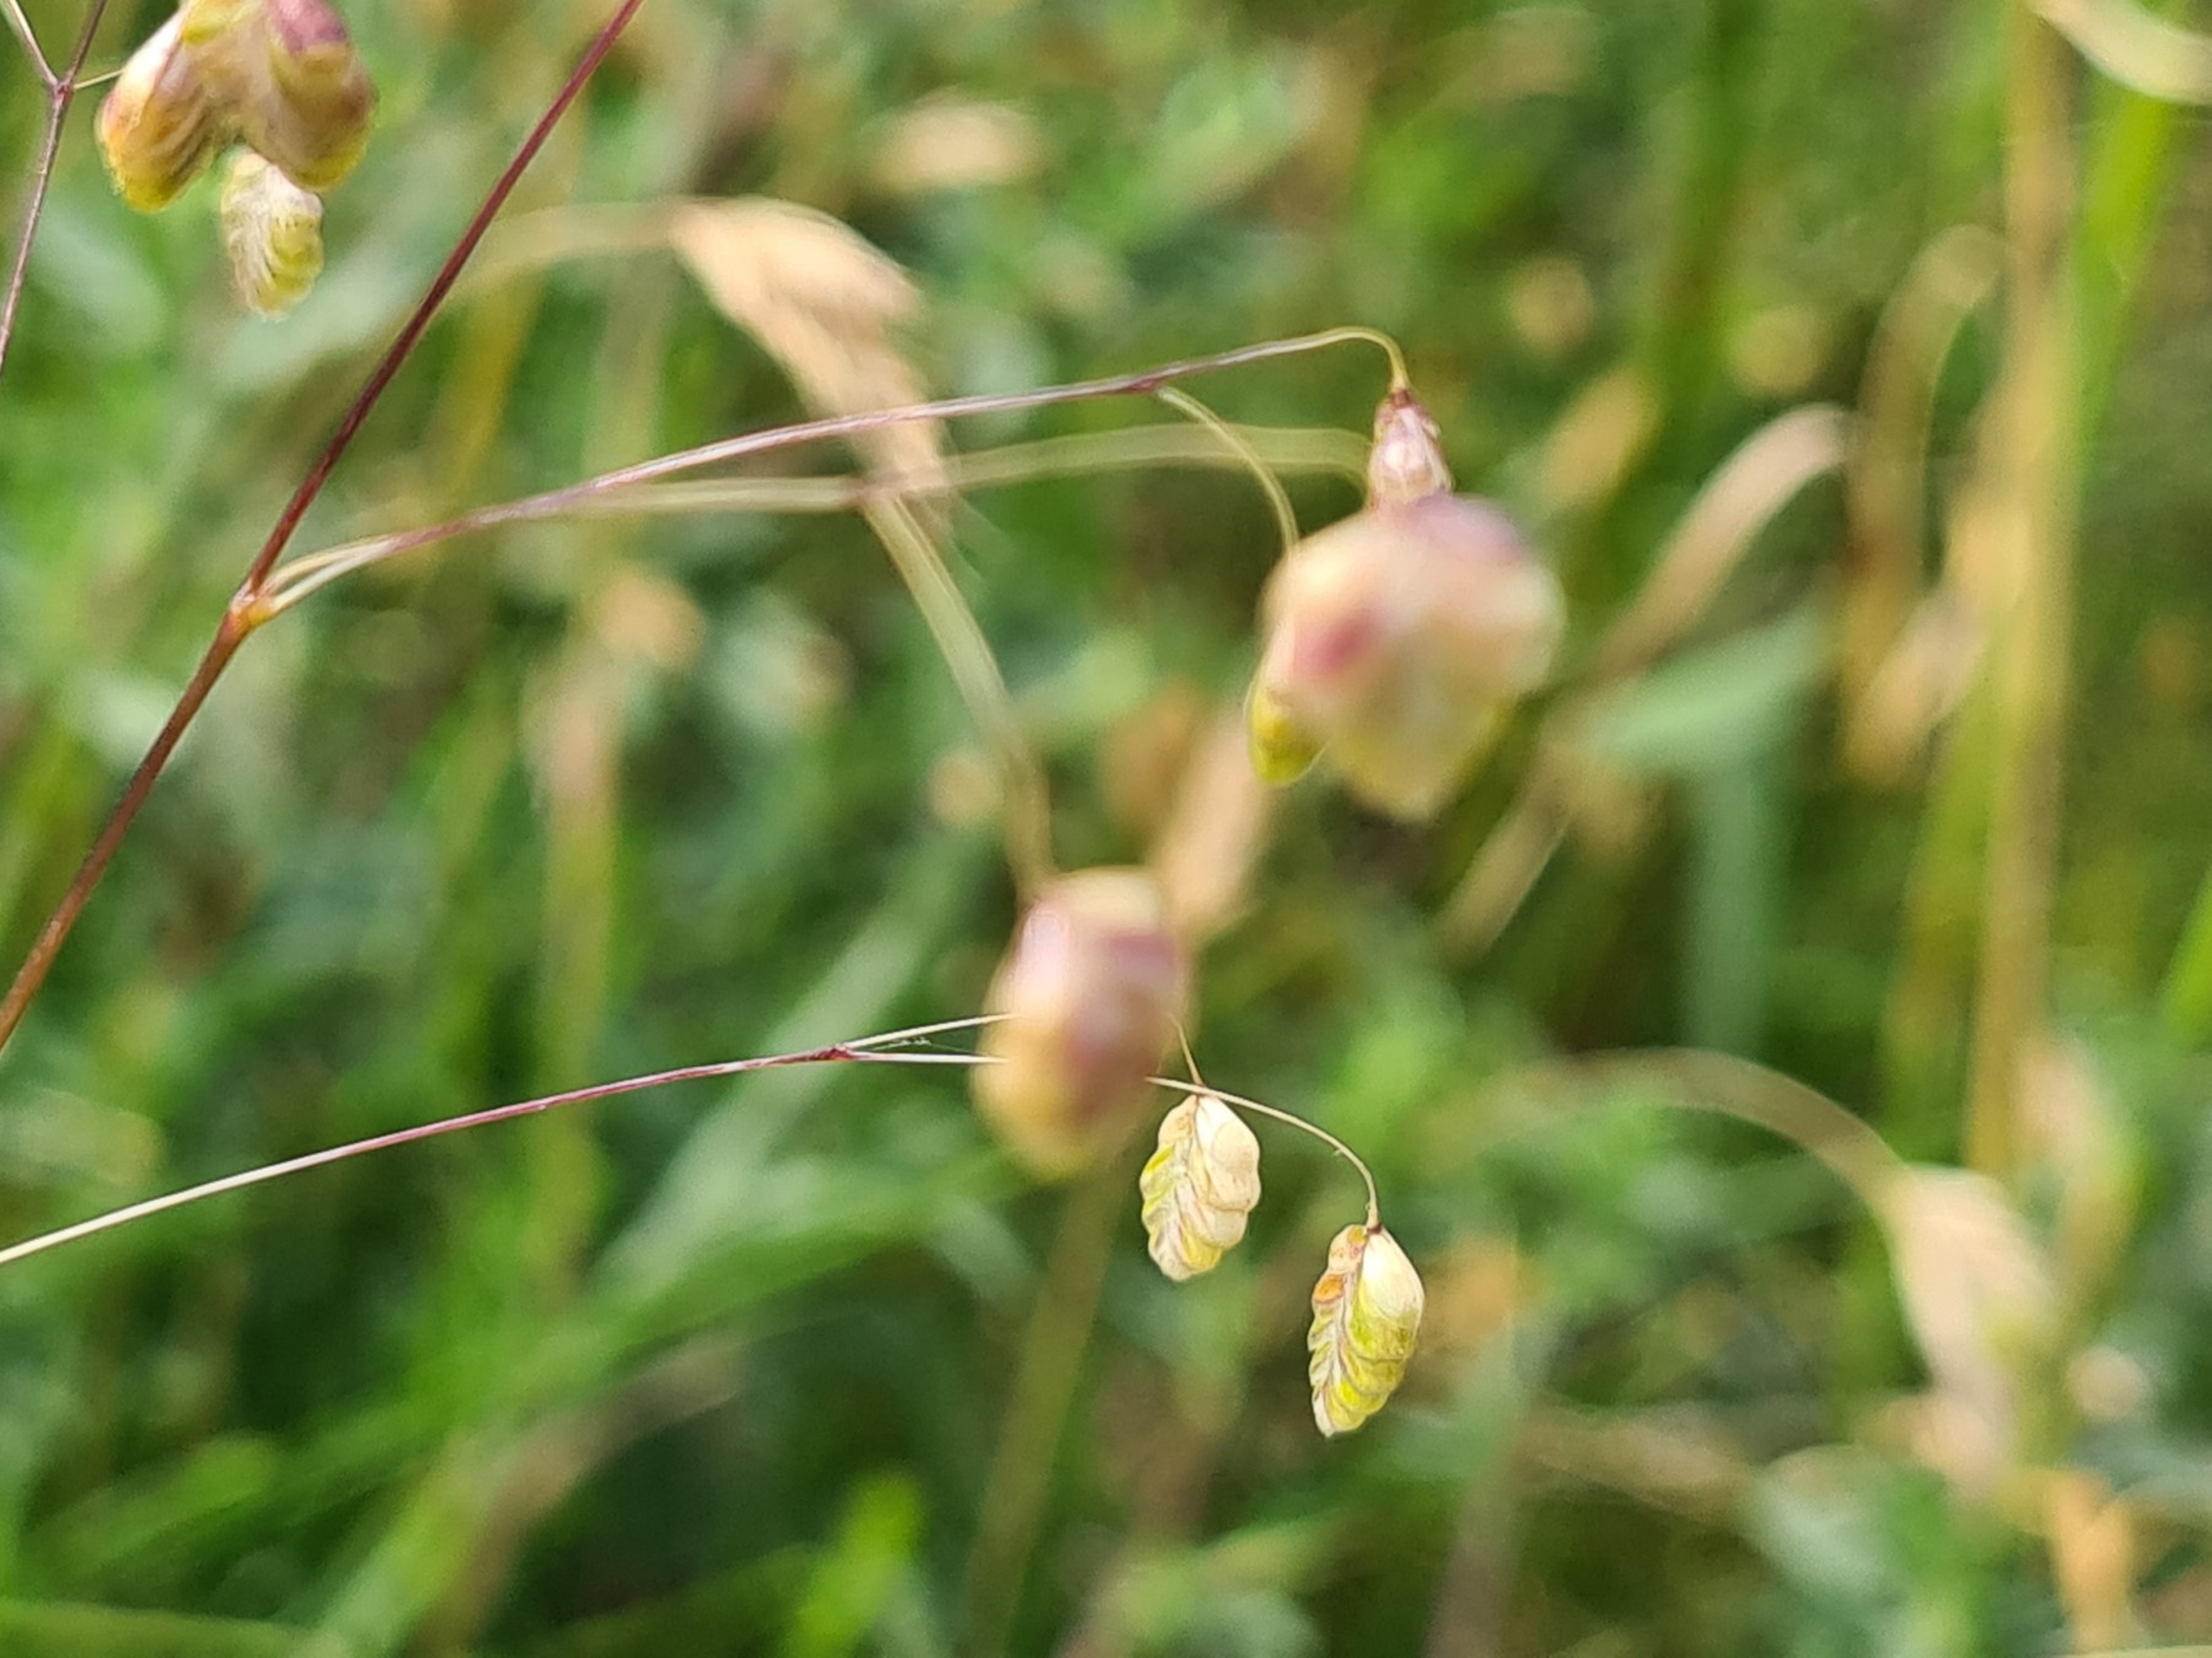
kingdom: Plantae
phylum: Tracheophyta
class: Liliopsida
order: Poales
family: Poaceae
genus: Briza
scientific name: Briza media
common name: Hjertegræs
